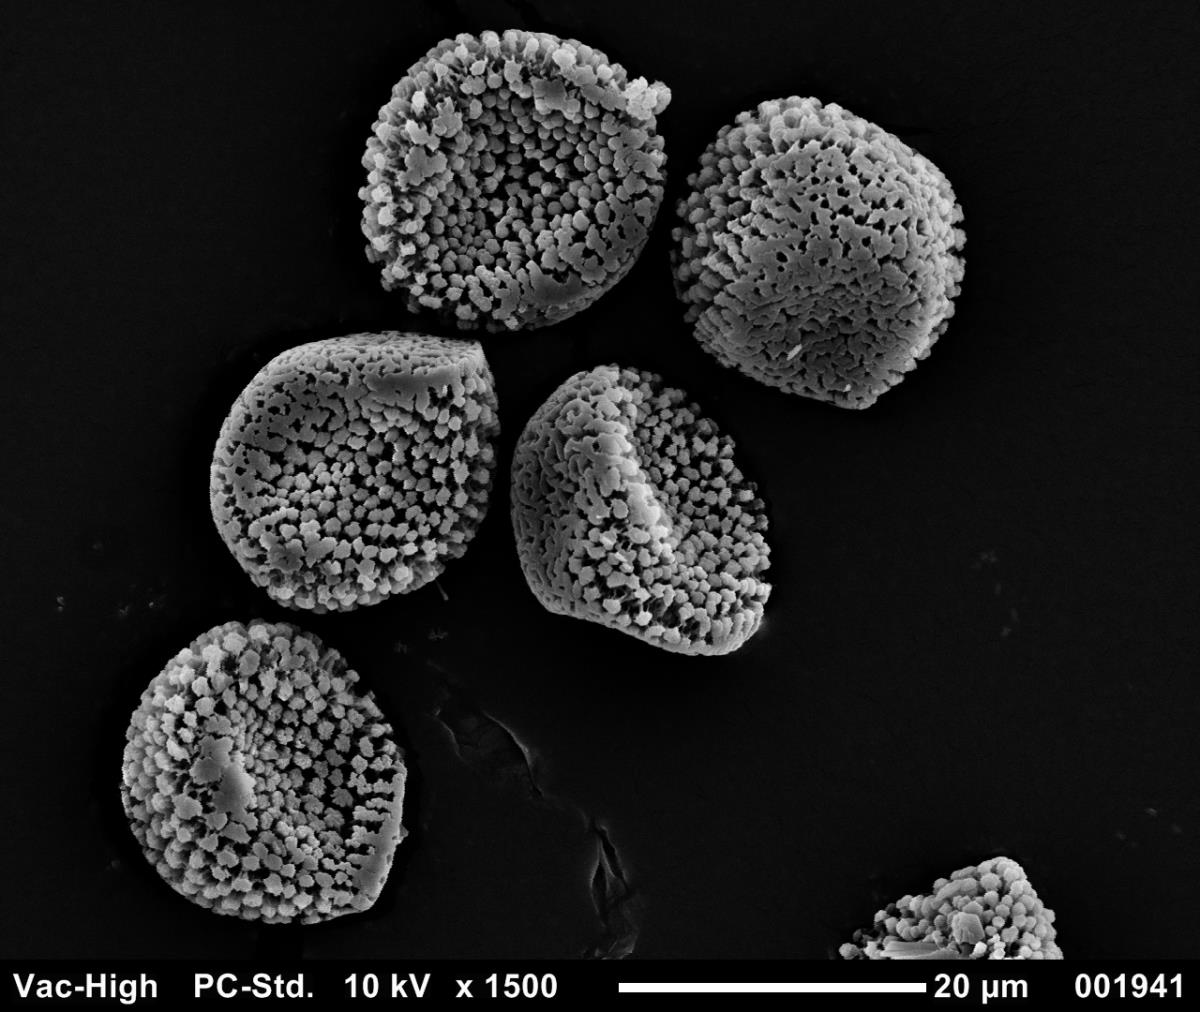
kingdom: Fungi
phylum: Basidiomycota
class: Pucciniomycetes
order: Pucciniales
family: Pucciniaceae
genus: Uredo
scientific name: Uredo puawhananga
